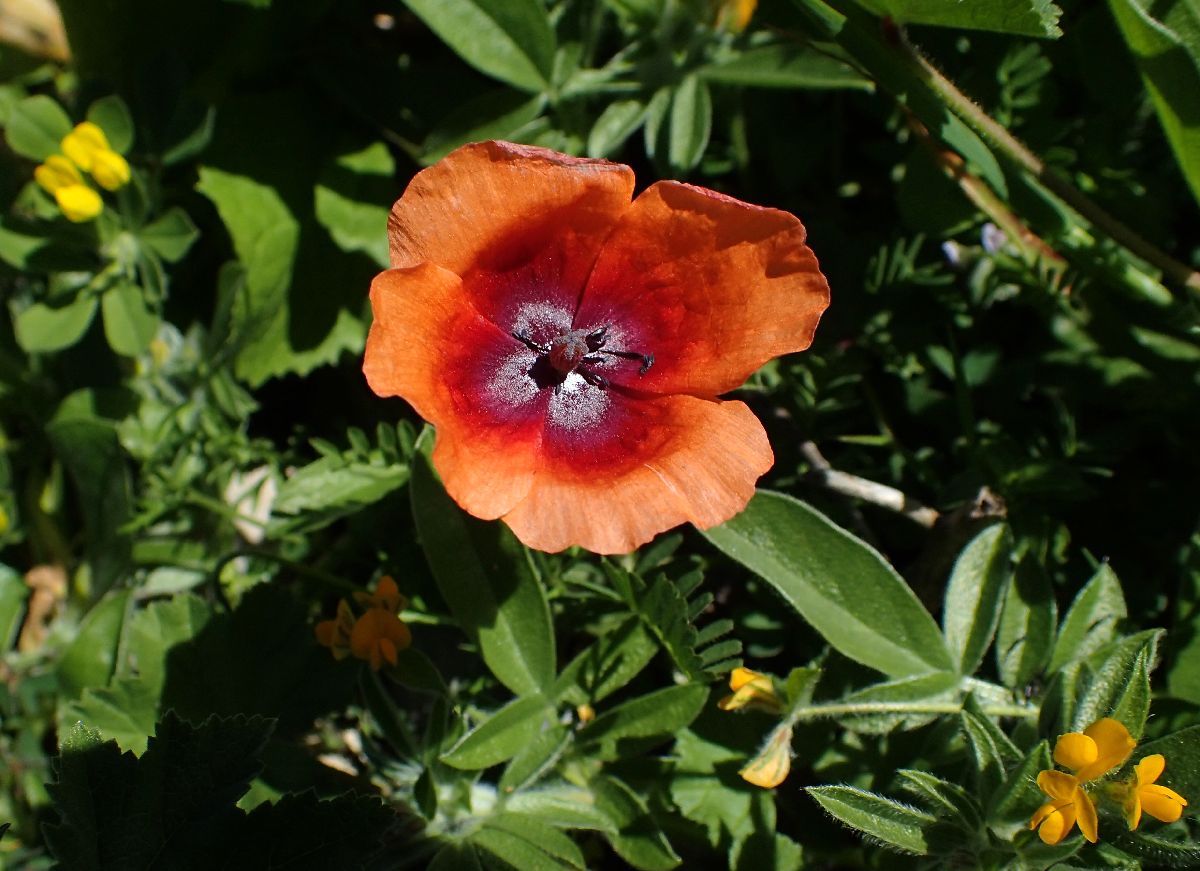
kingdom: Plantae
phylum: Tracheophyta
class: Magnoliopsida
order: Ranunculales
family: Papaveraceae
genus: Roemeria
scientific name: Roemeria apula
